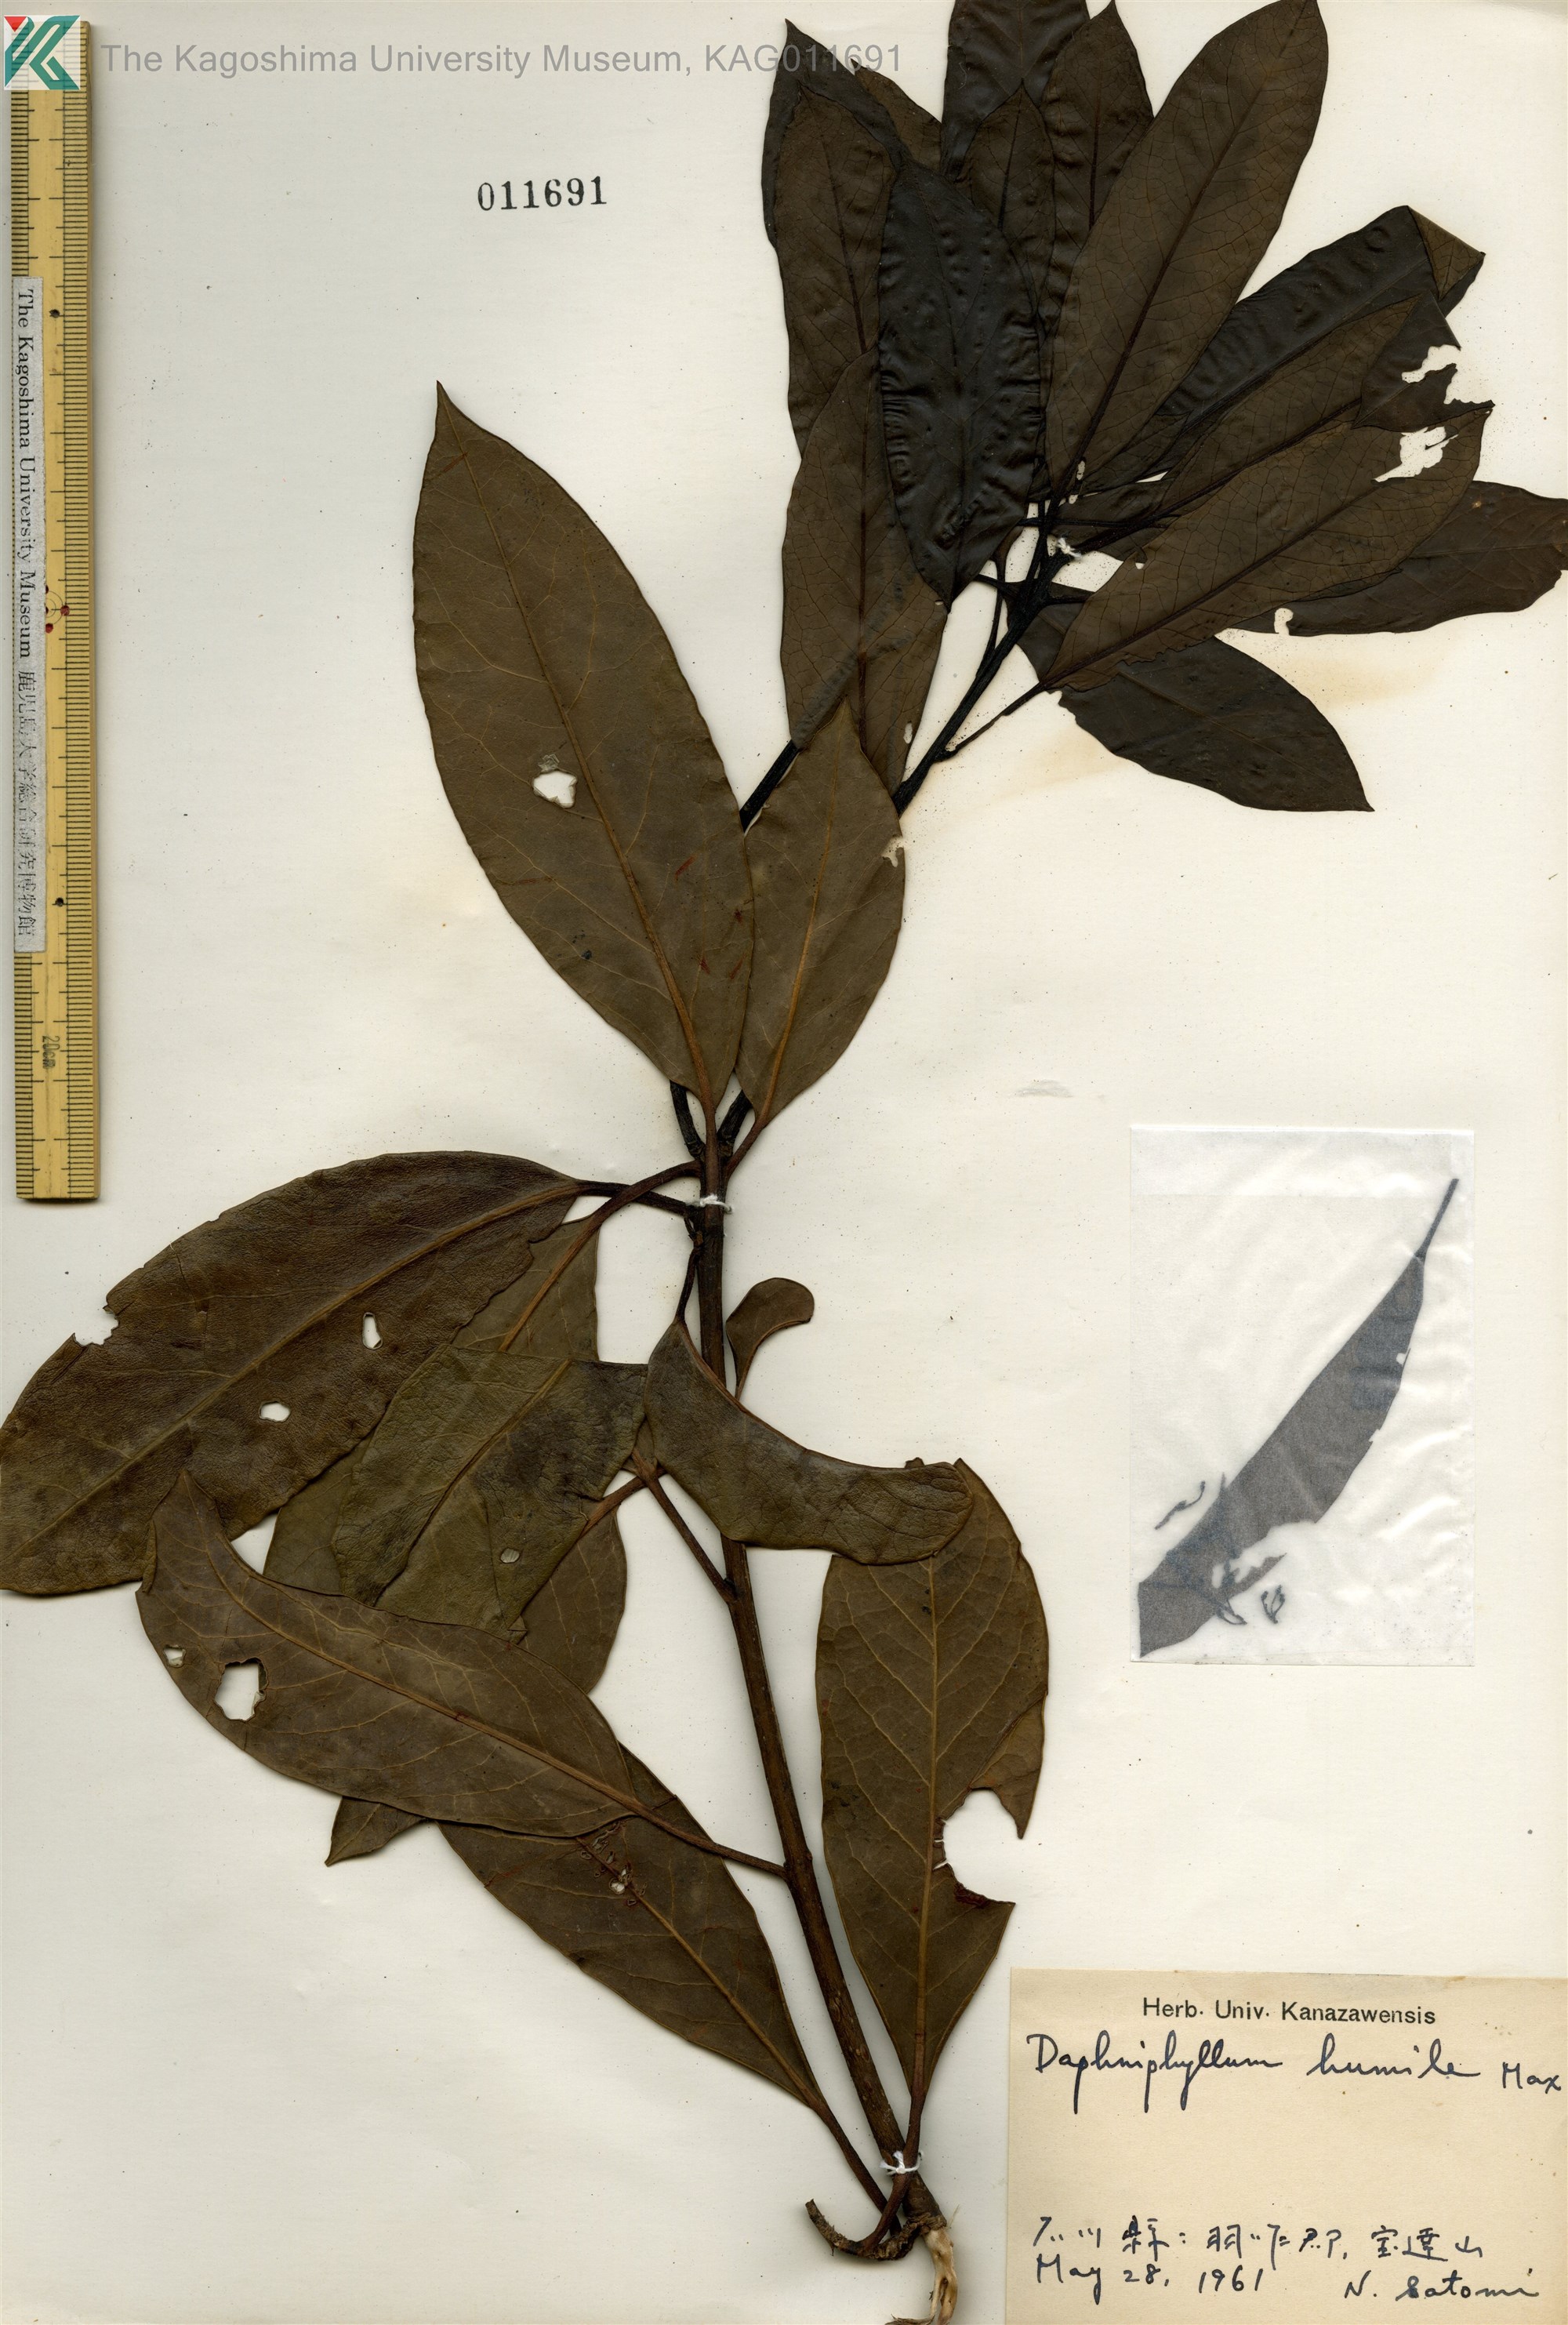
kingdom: Plantae
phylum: Tracheophyta
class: Magnoliopsida
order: Saxifragales
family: Daphniphyllaceae
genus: Daphniphyllum
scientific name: Daphniphyllum macropodum
